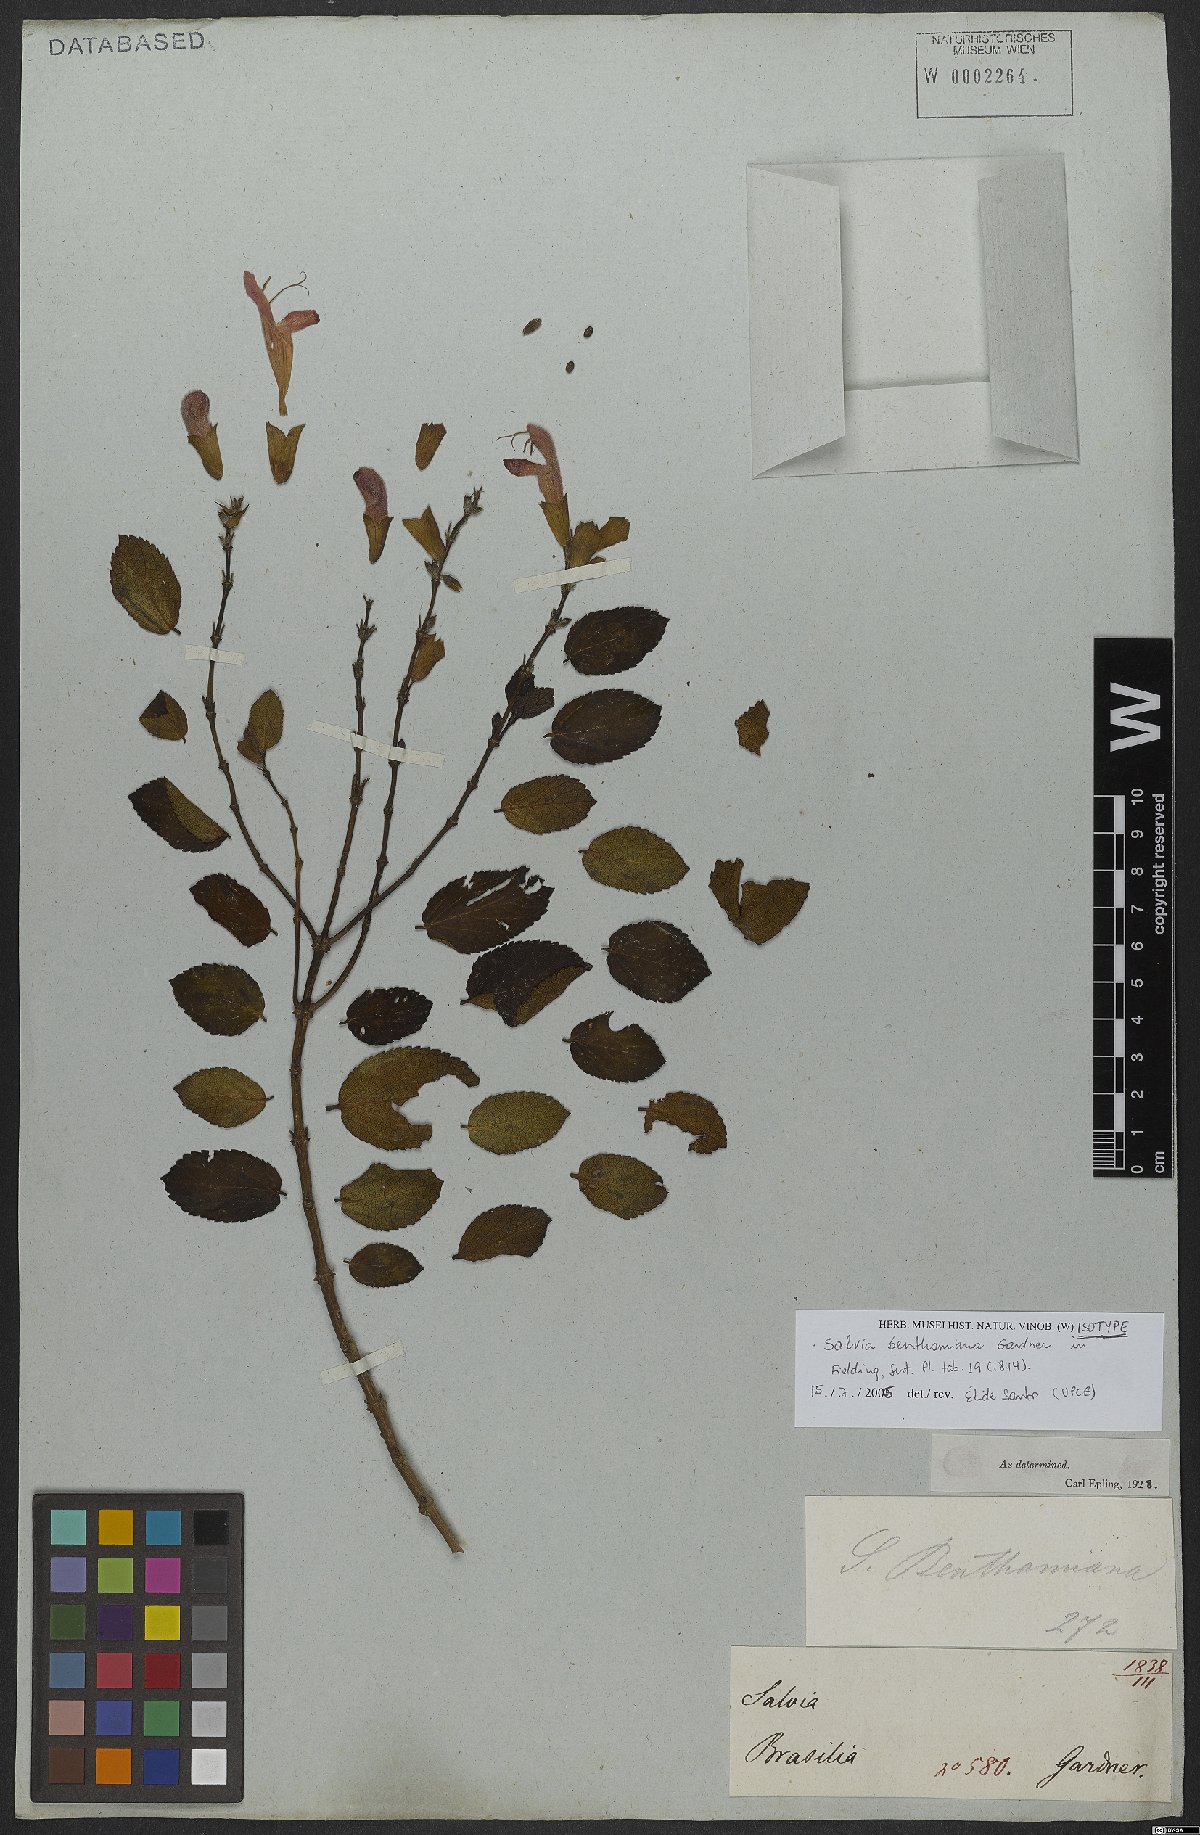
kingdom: Plantae
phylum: Tracheophyta
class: Magnoliopsida
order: Lamiales
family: Lamiaceae
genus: Salvia
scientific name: Salvia benthamiana
